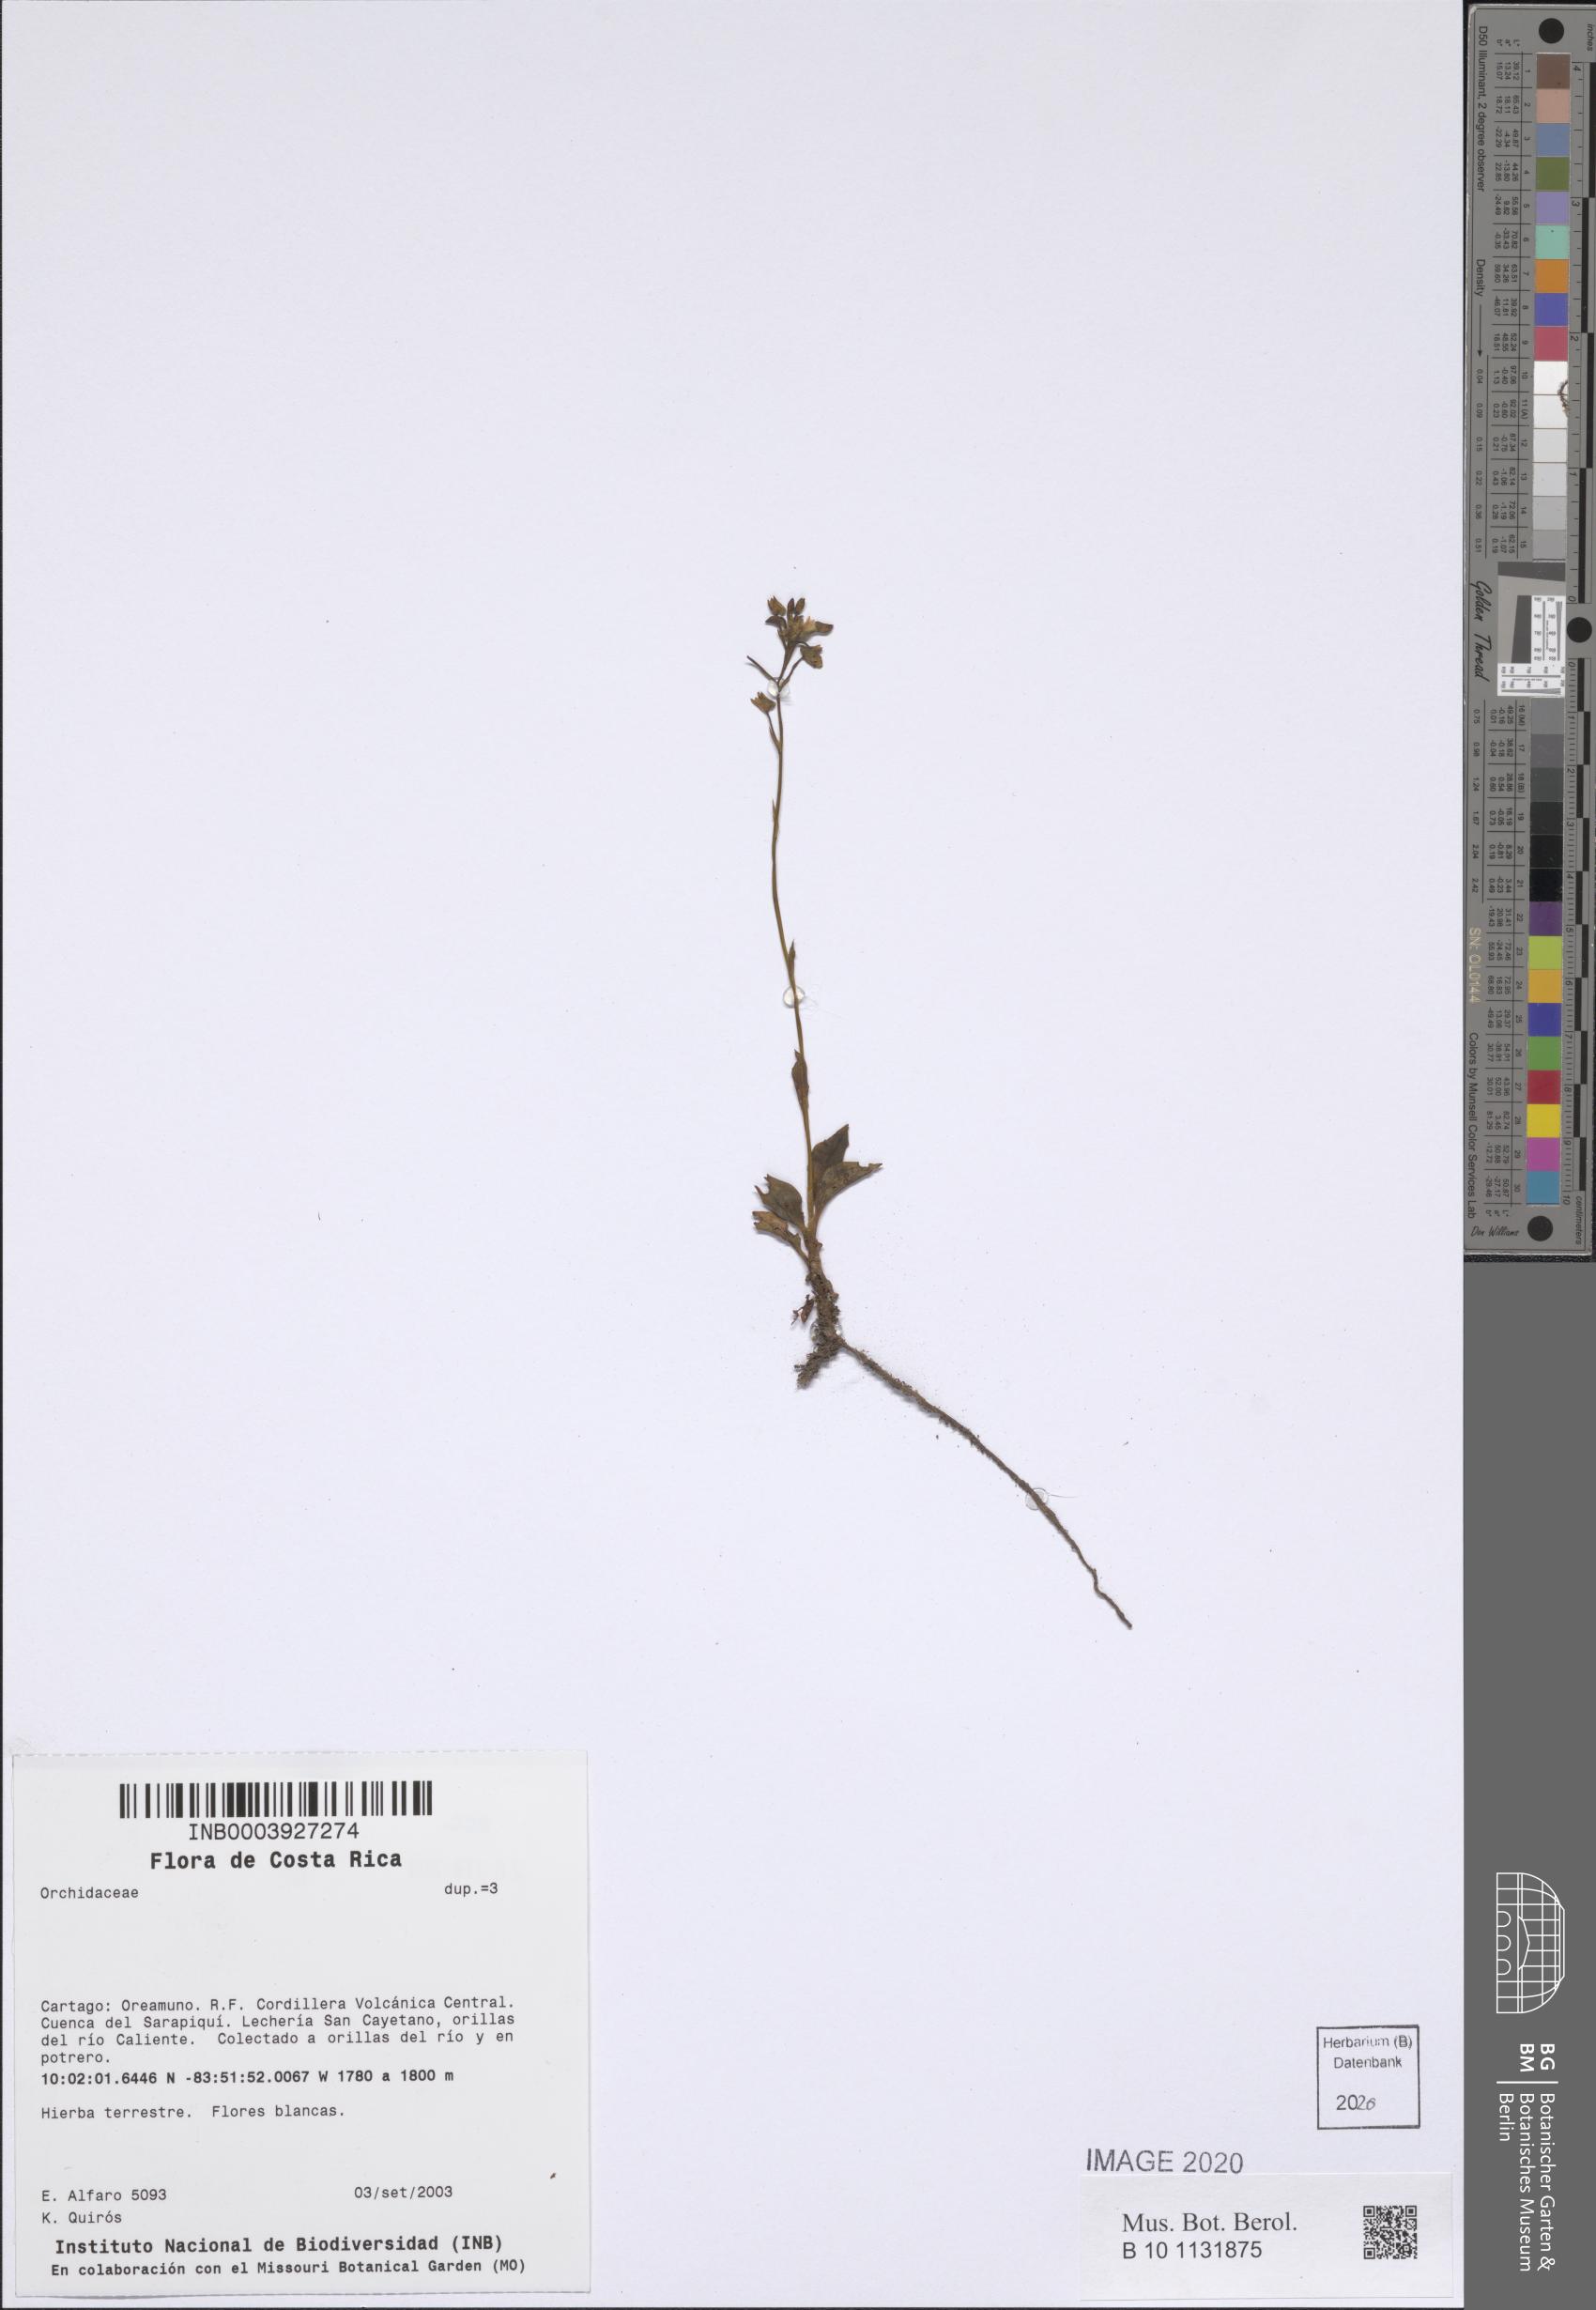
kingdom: Plantae
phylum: Tracheophyta
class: Liliopsida
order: Asparagales
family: Orchidaceae
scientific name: Orchidaceae
